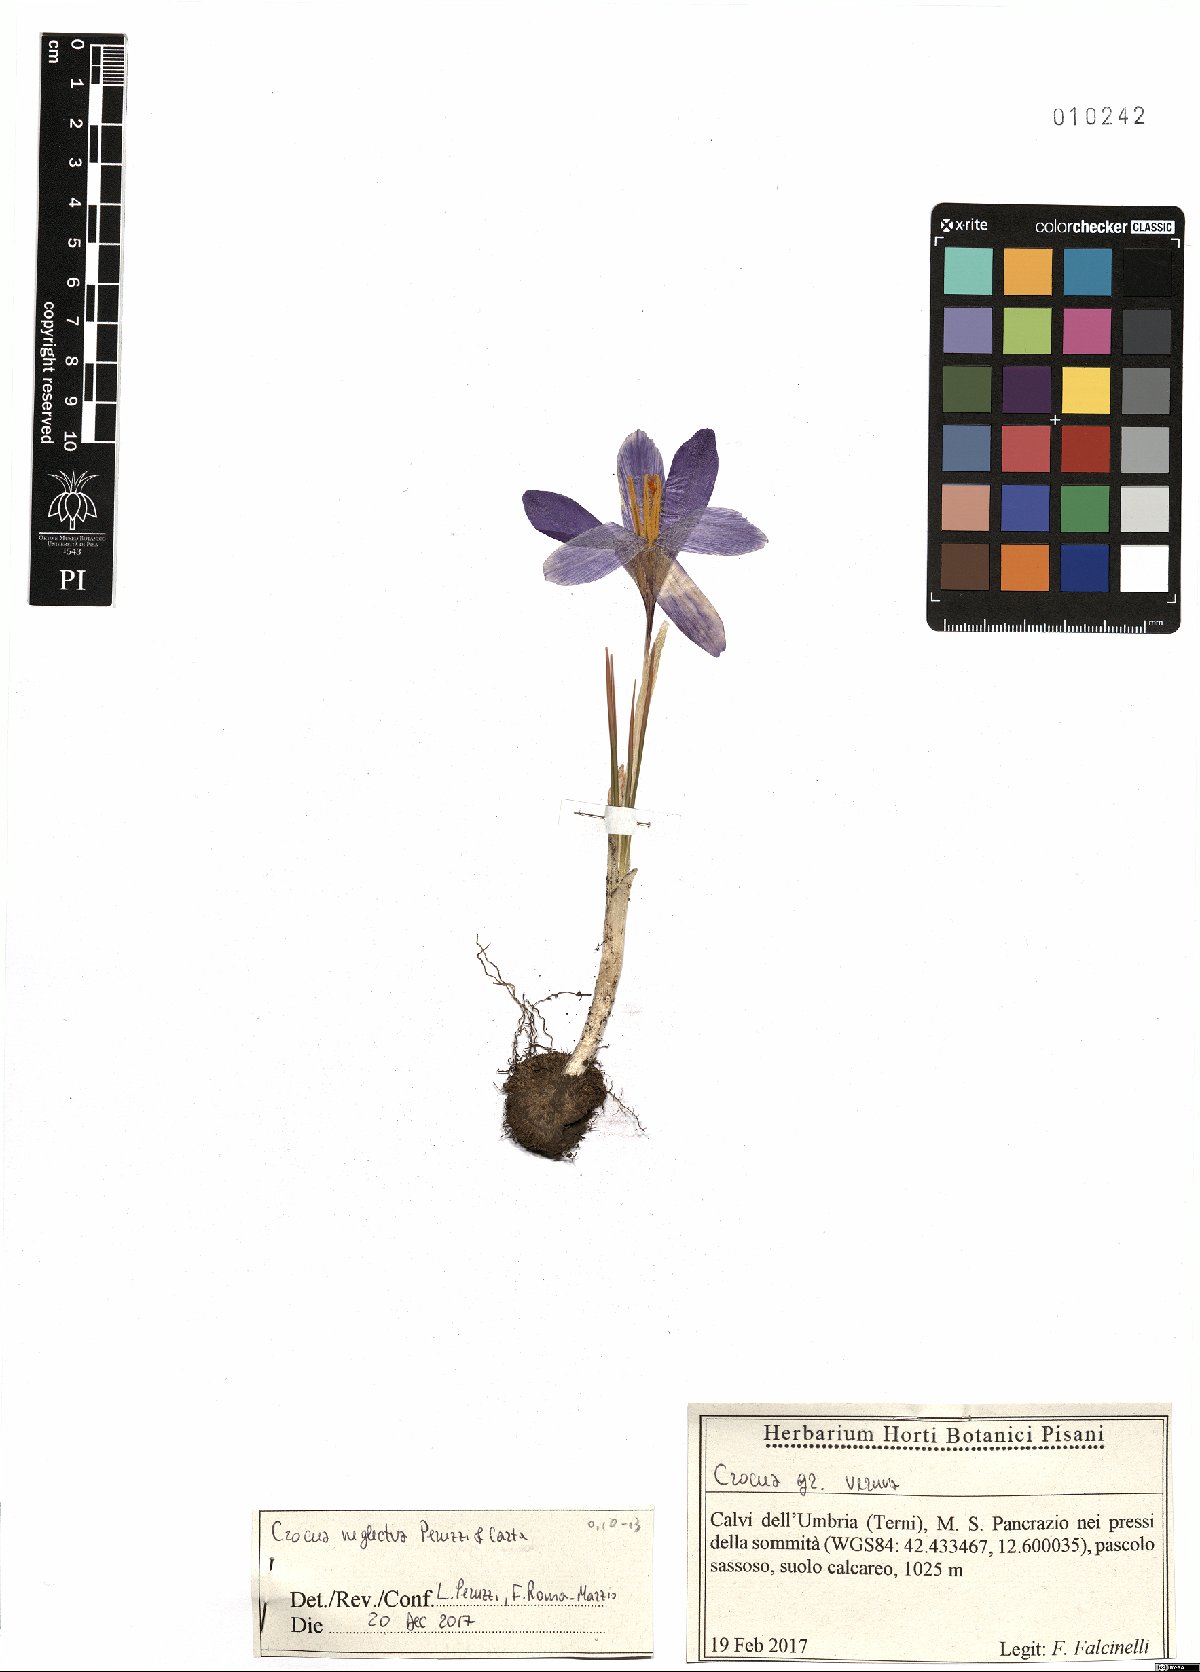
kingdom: Plantae
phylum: Tracheophyta
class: Liliopsida
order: Asparagales
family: Iridaceae
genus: Crocus
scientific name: Crocus neglectus
